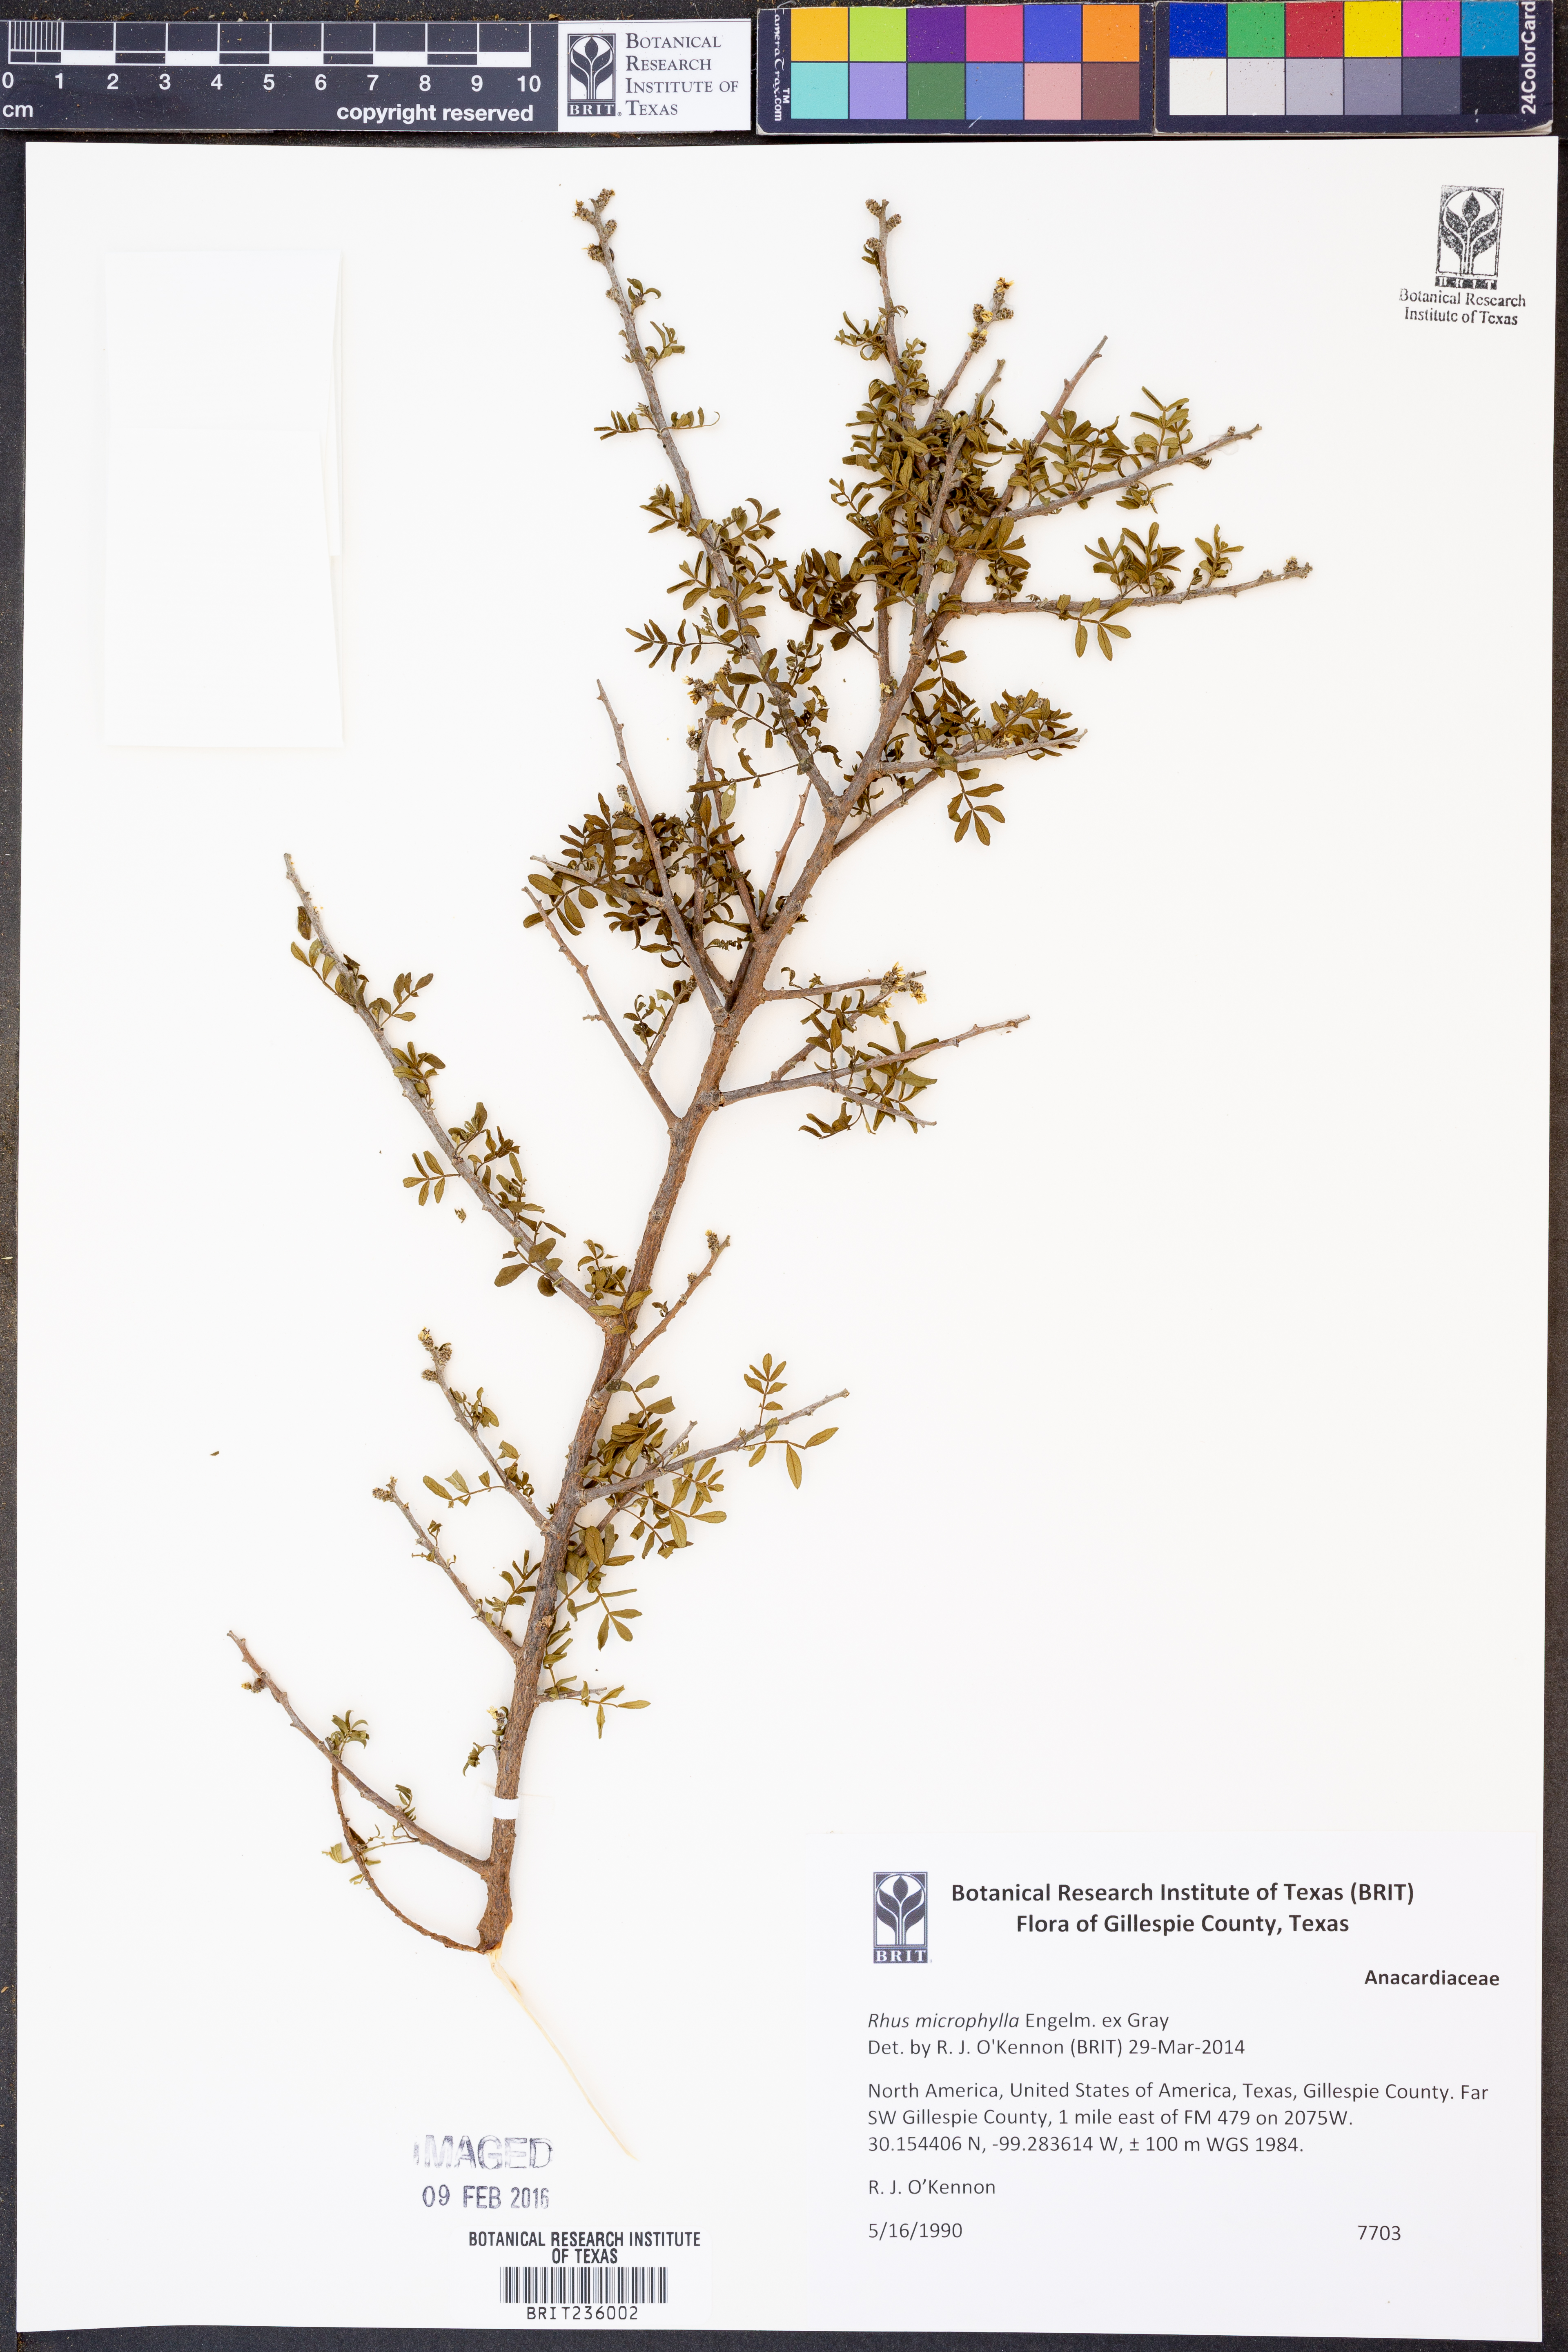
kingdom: Plantae
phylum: Tracheophyta
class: Magnoliopsida
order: Sapindales
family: Anacardiaceae
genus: Rhus
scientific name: Rhus microphylla
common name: Desert sumac
